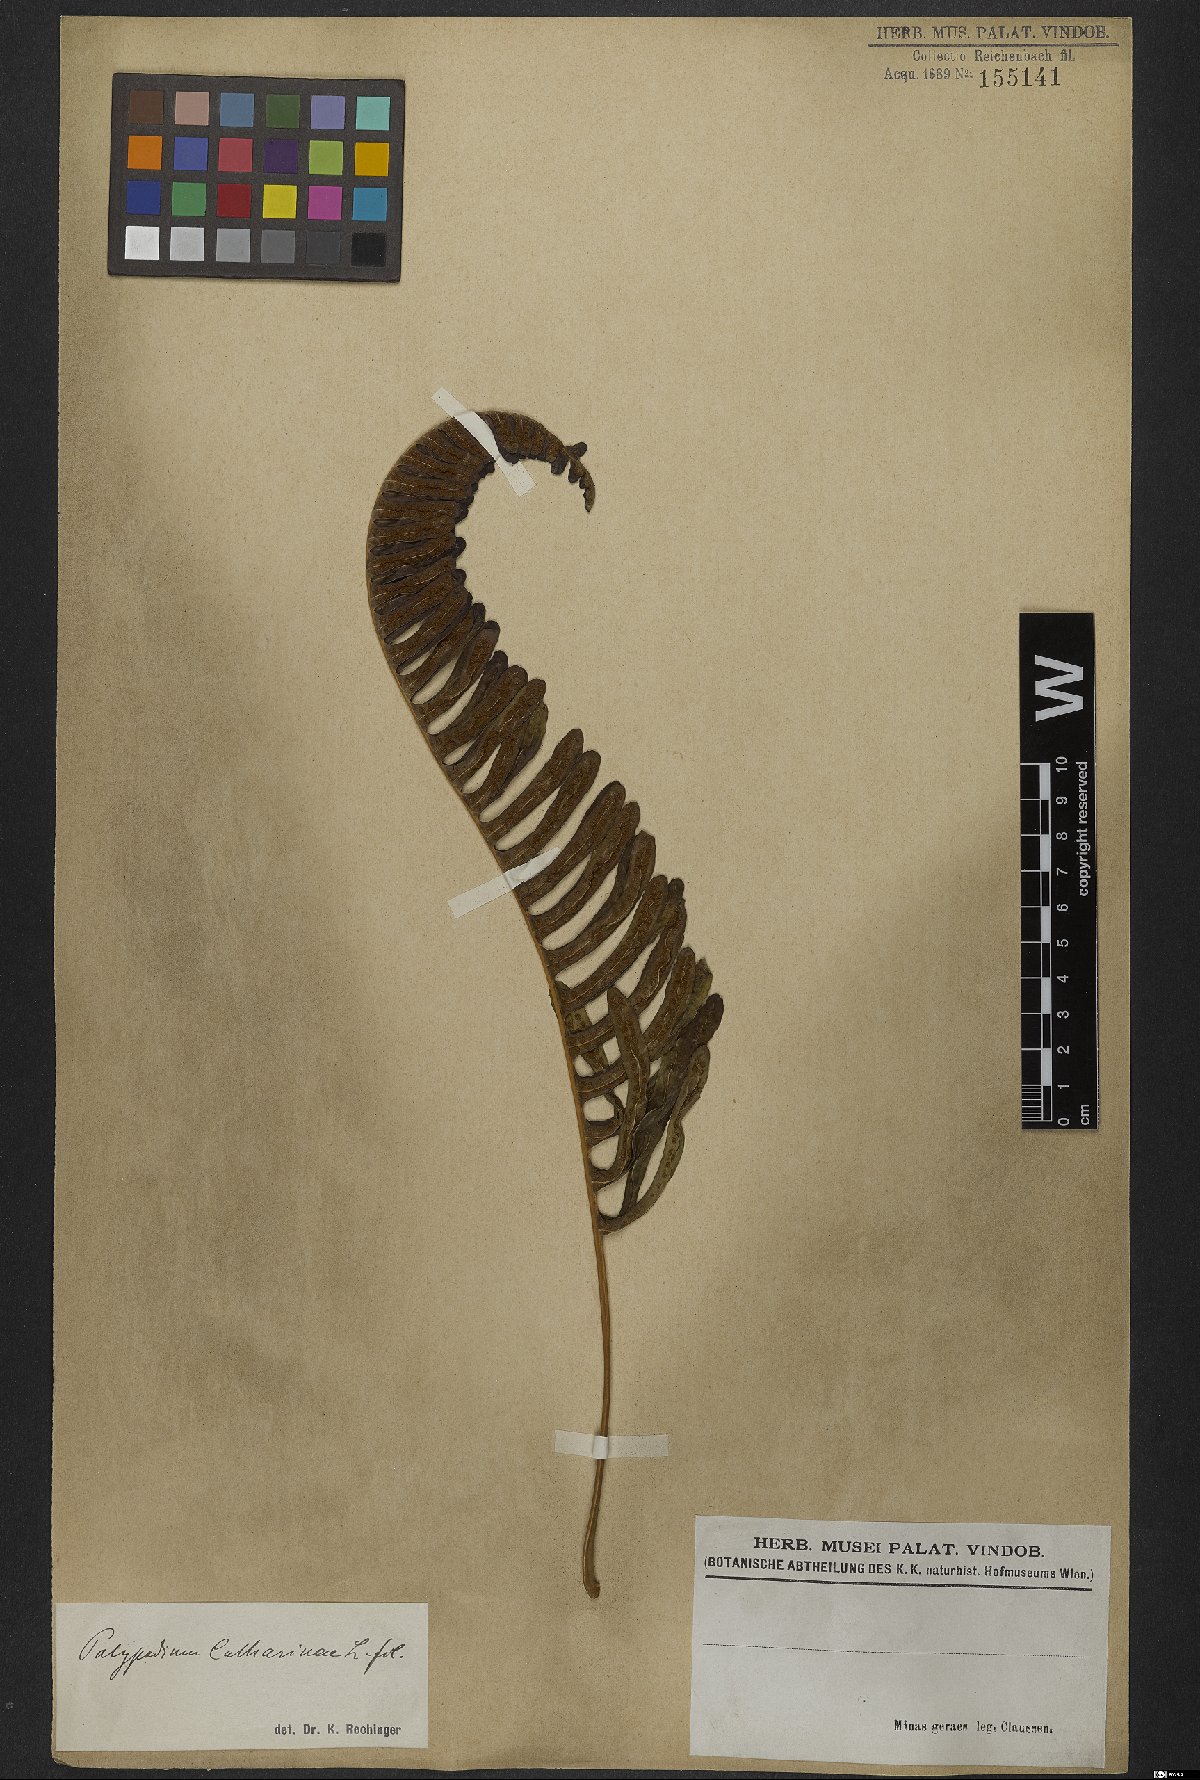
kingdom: Plantae
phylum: Tracheophyta
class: Polypodiopsida
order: Polypodiales
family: Polypodiaceae
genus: Serpocaulon
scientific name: Serpocaulon catharinae
